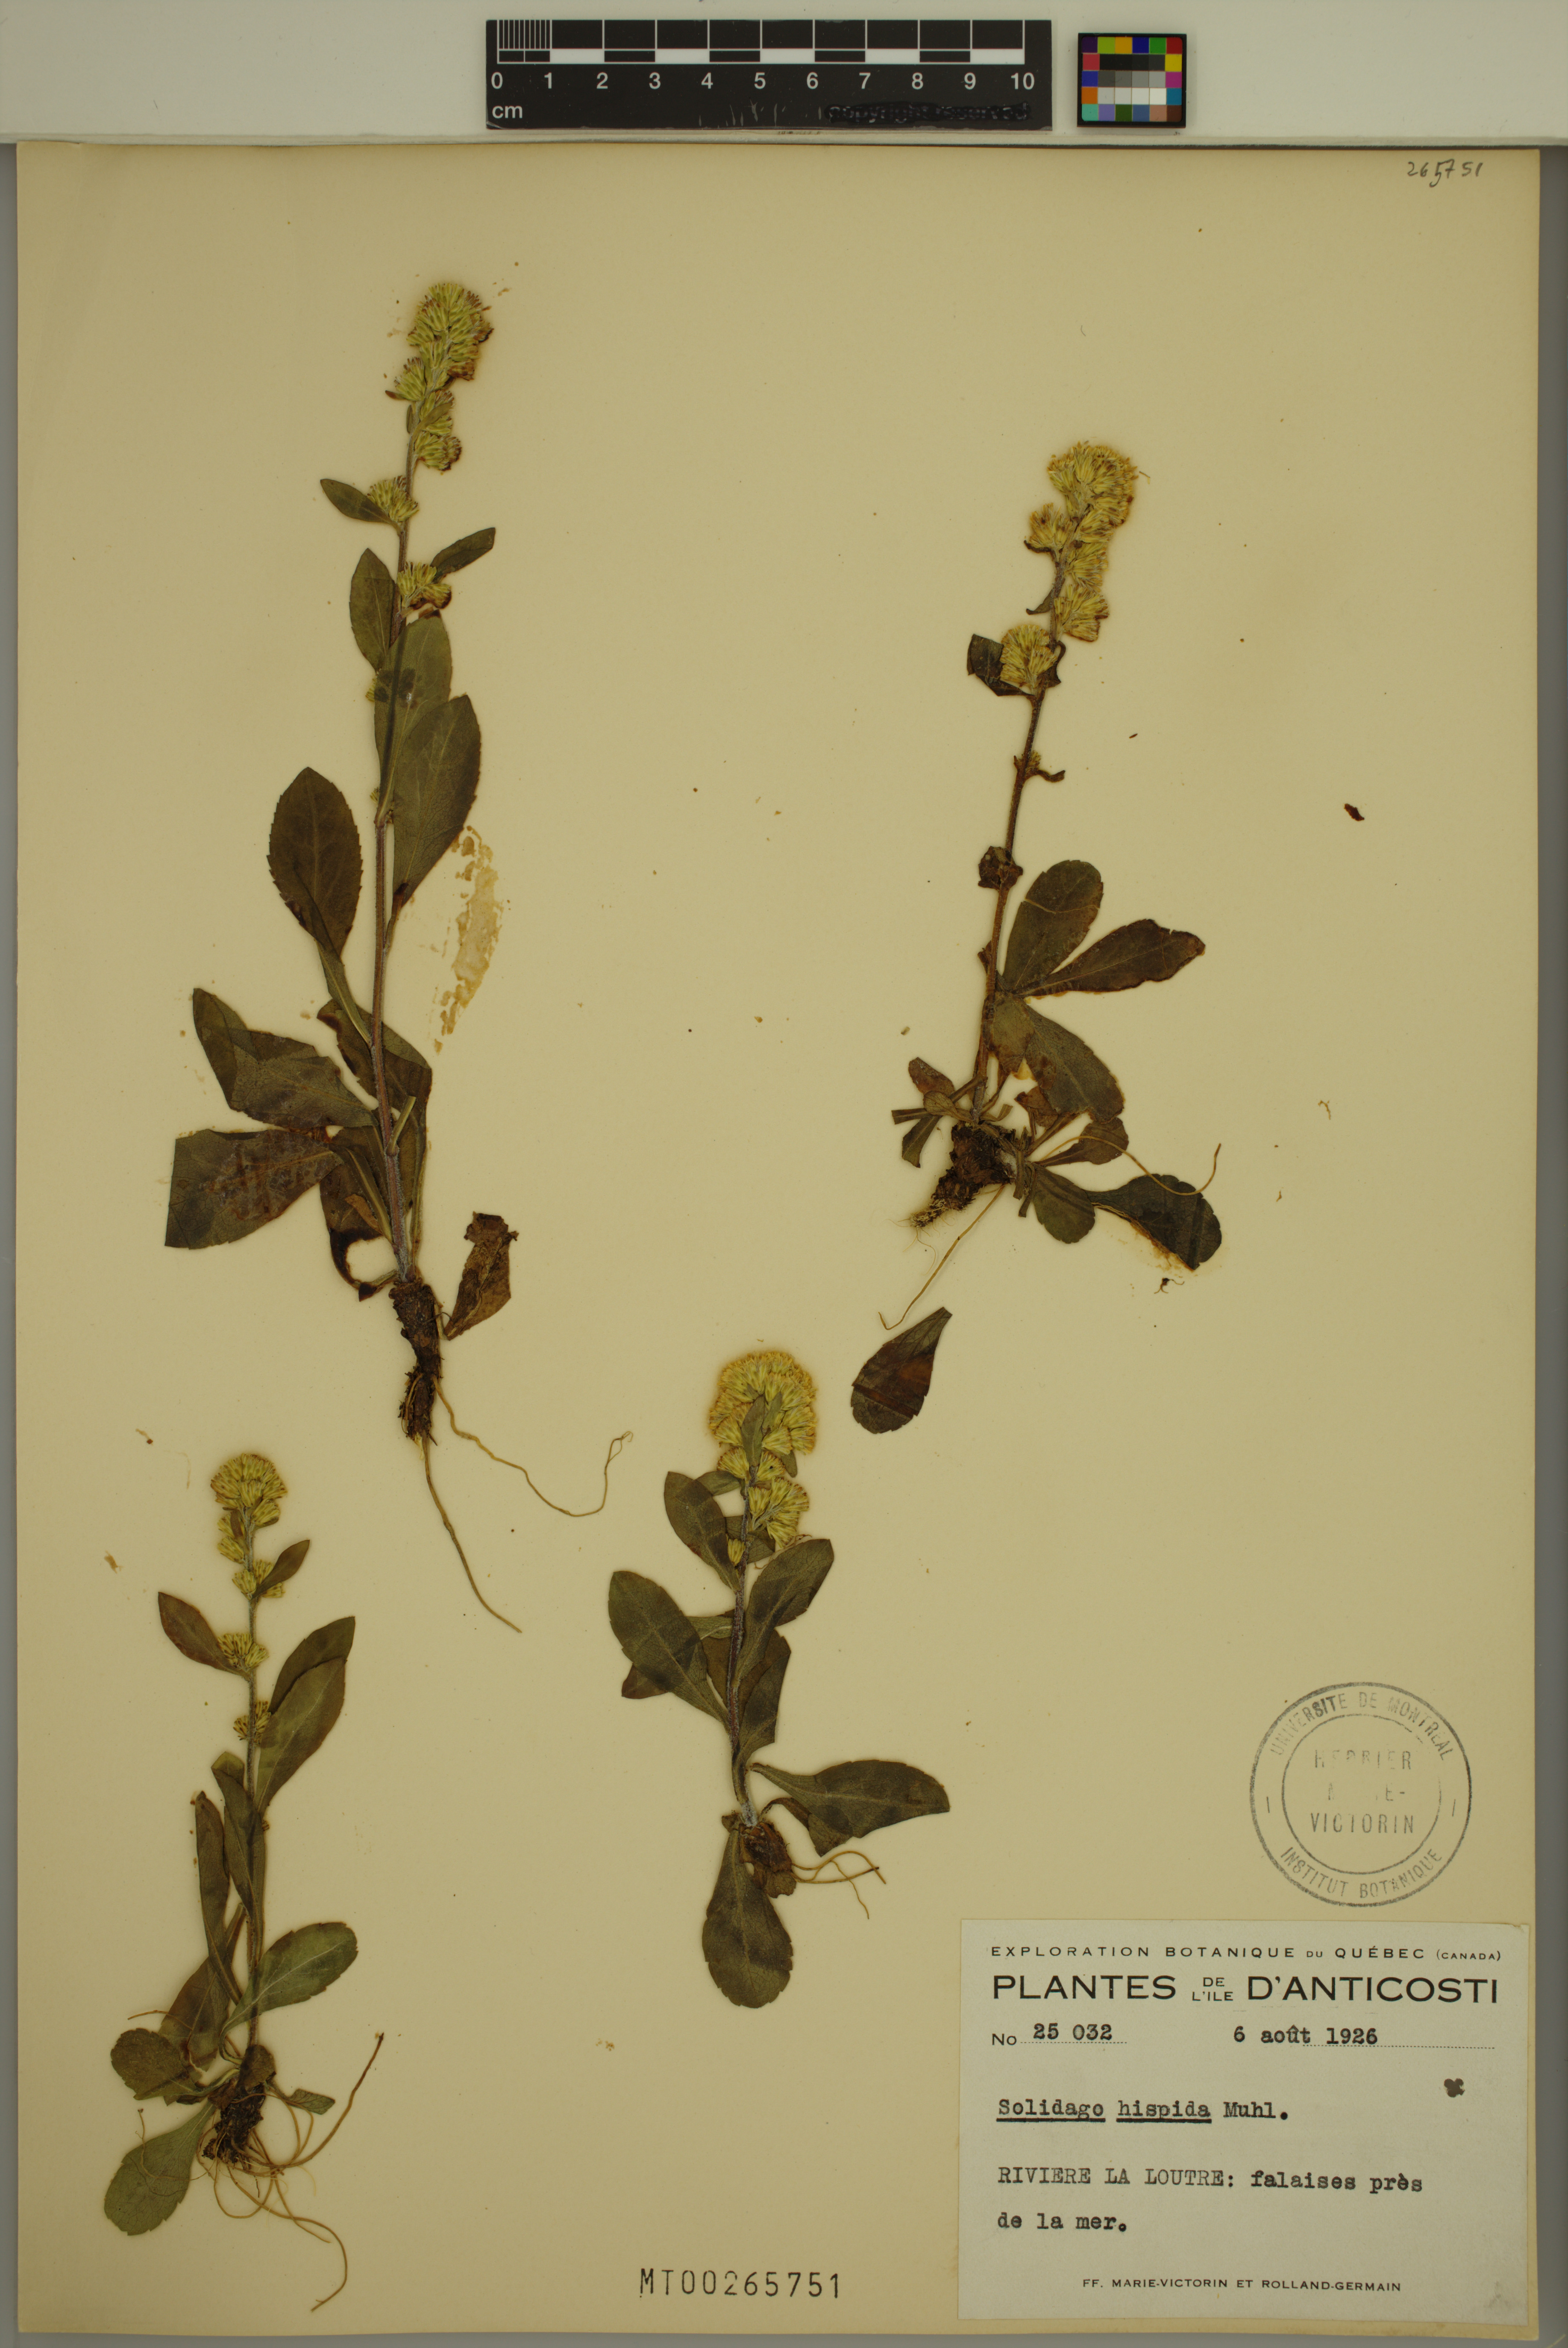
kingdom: Plantae
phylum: Tracheophyta
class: Magnoliopsida
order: Asterales
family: Asteraceae
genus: Solidago
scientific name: Solidago hispida
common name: Hairy goldenrod
